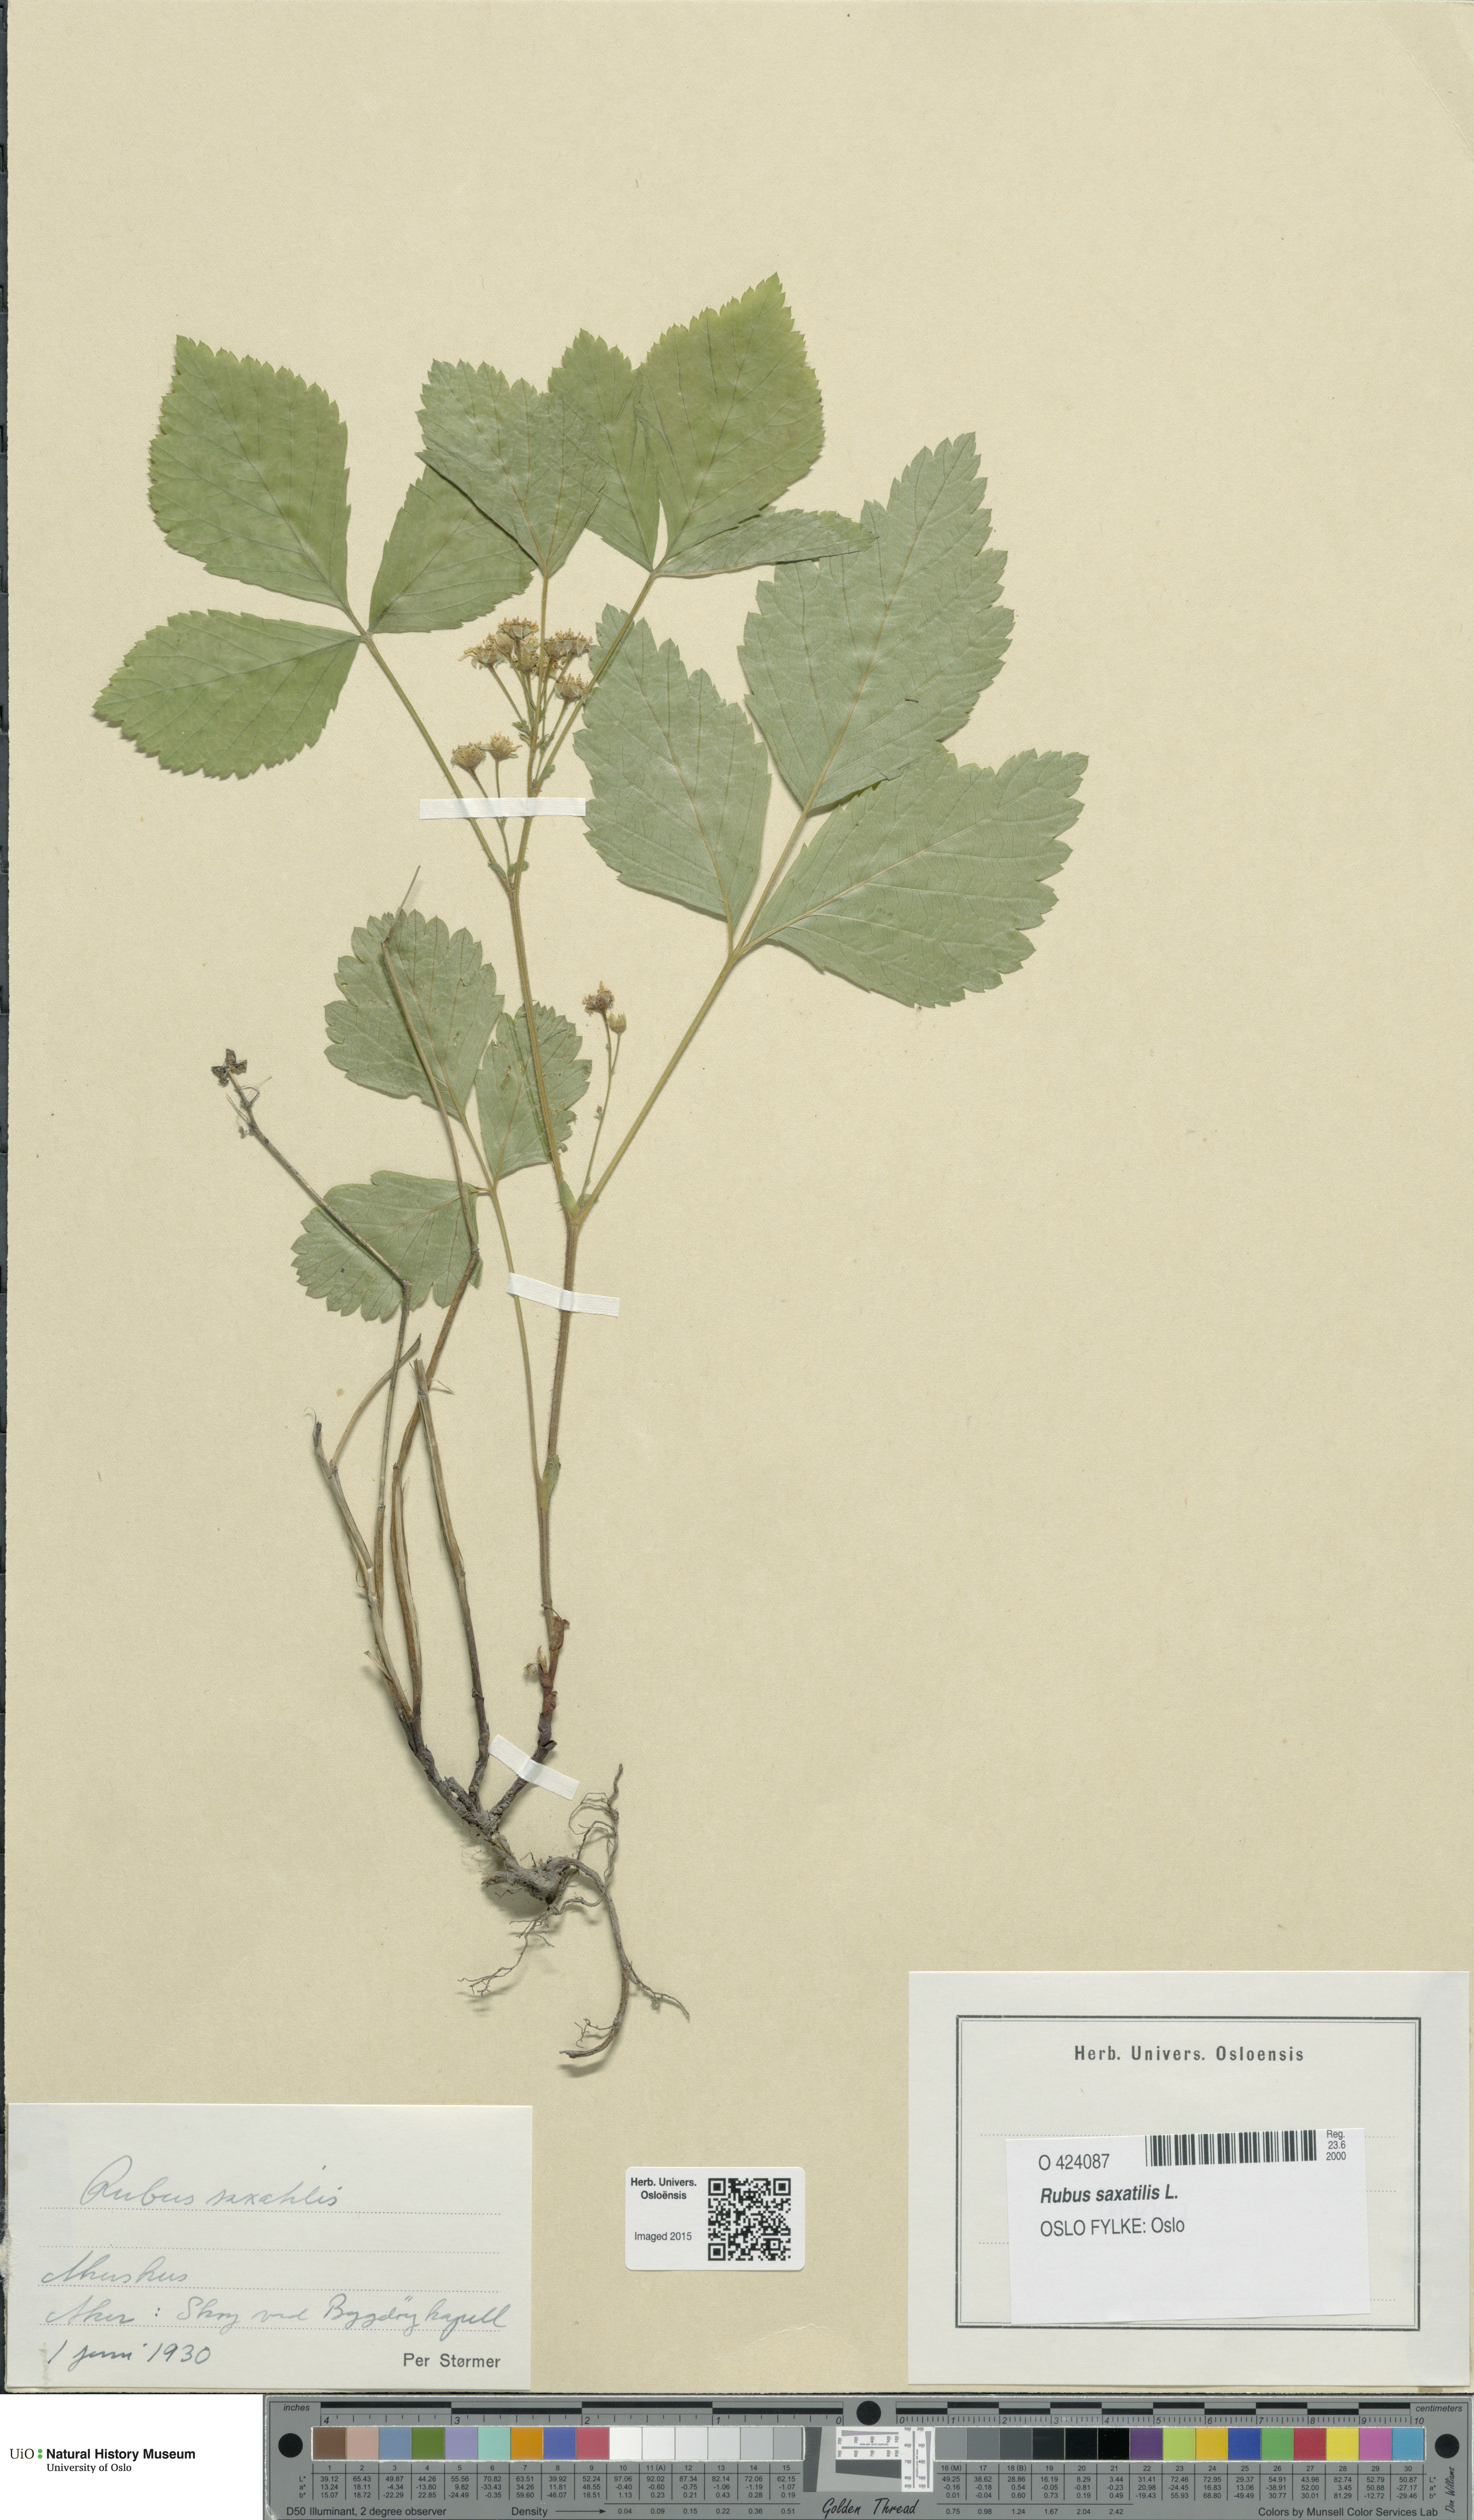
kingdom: Plantae
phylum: Tracheophyta
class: Magnoliopsida
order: Rosales
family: Rosaceae
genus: Rubus
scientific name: Rubus saxatilis
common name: Stone bramble
